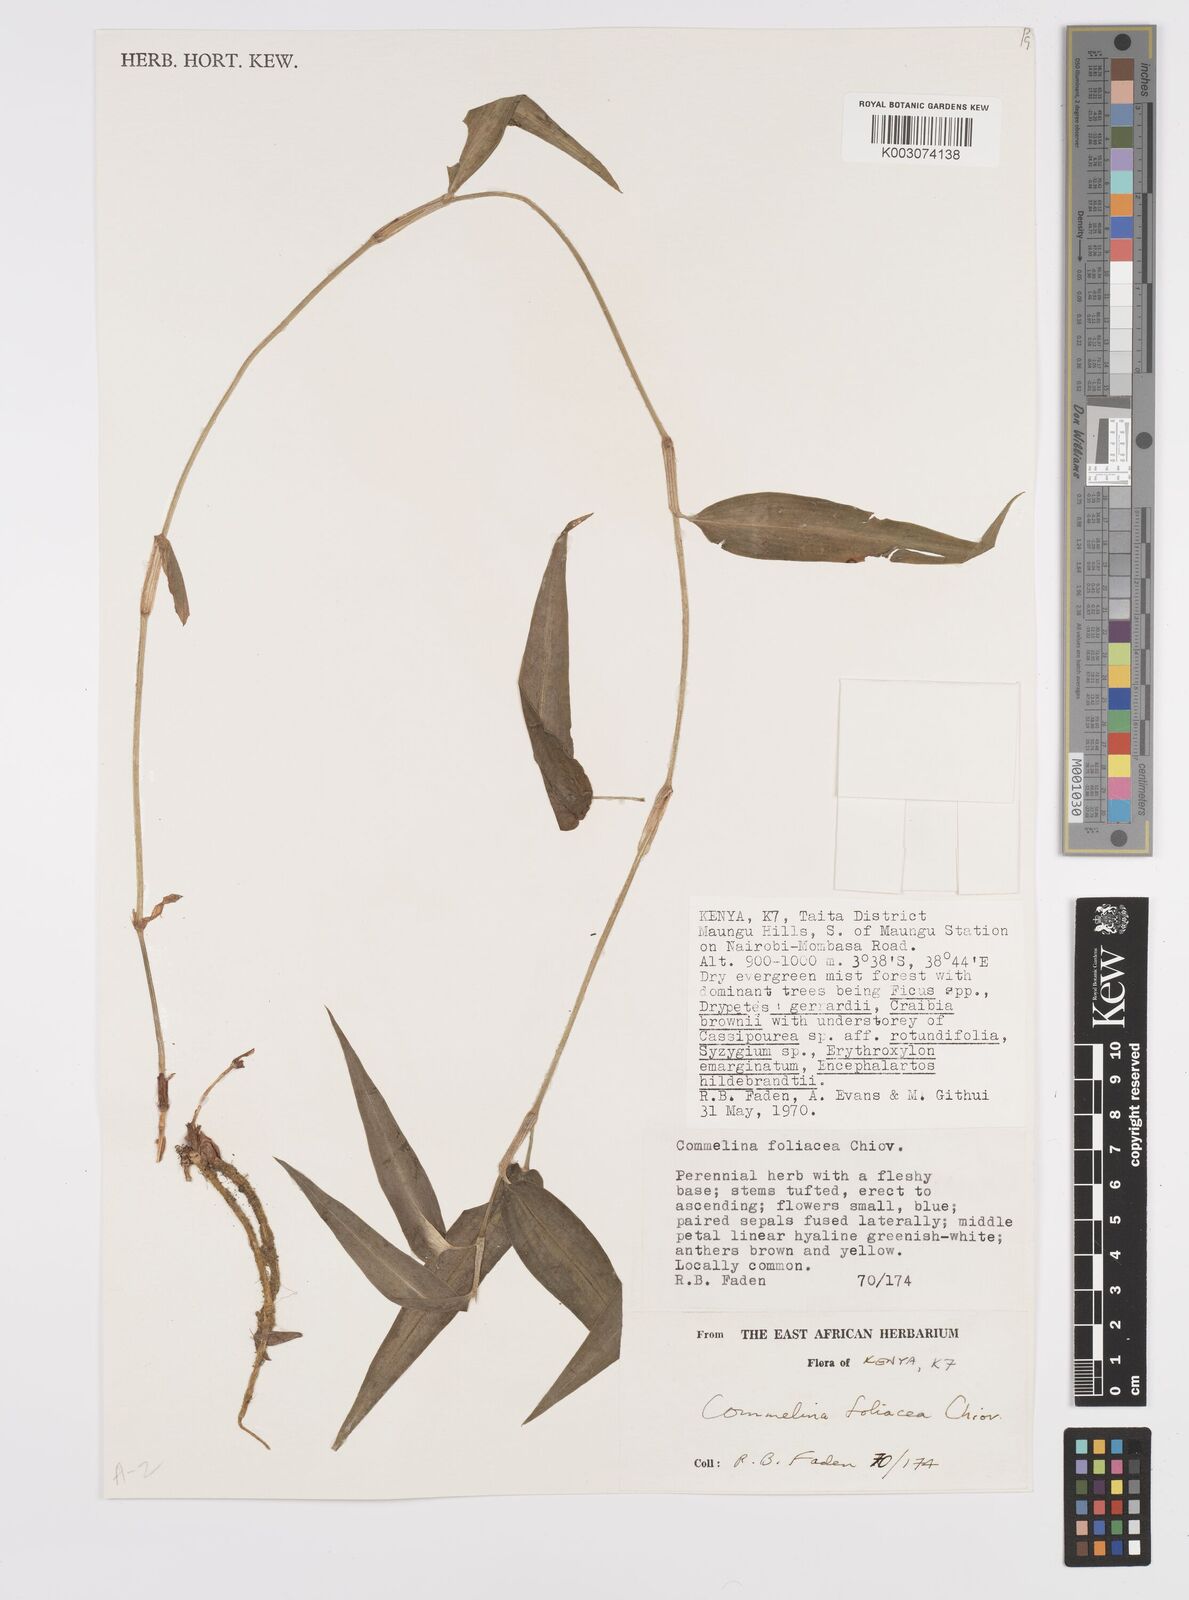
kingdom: Plantae
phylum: Tracheophyta
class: Liliopsida
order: Commelinales
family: Commelinaceae
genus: Commelina
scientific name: Commelina foliacea
